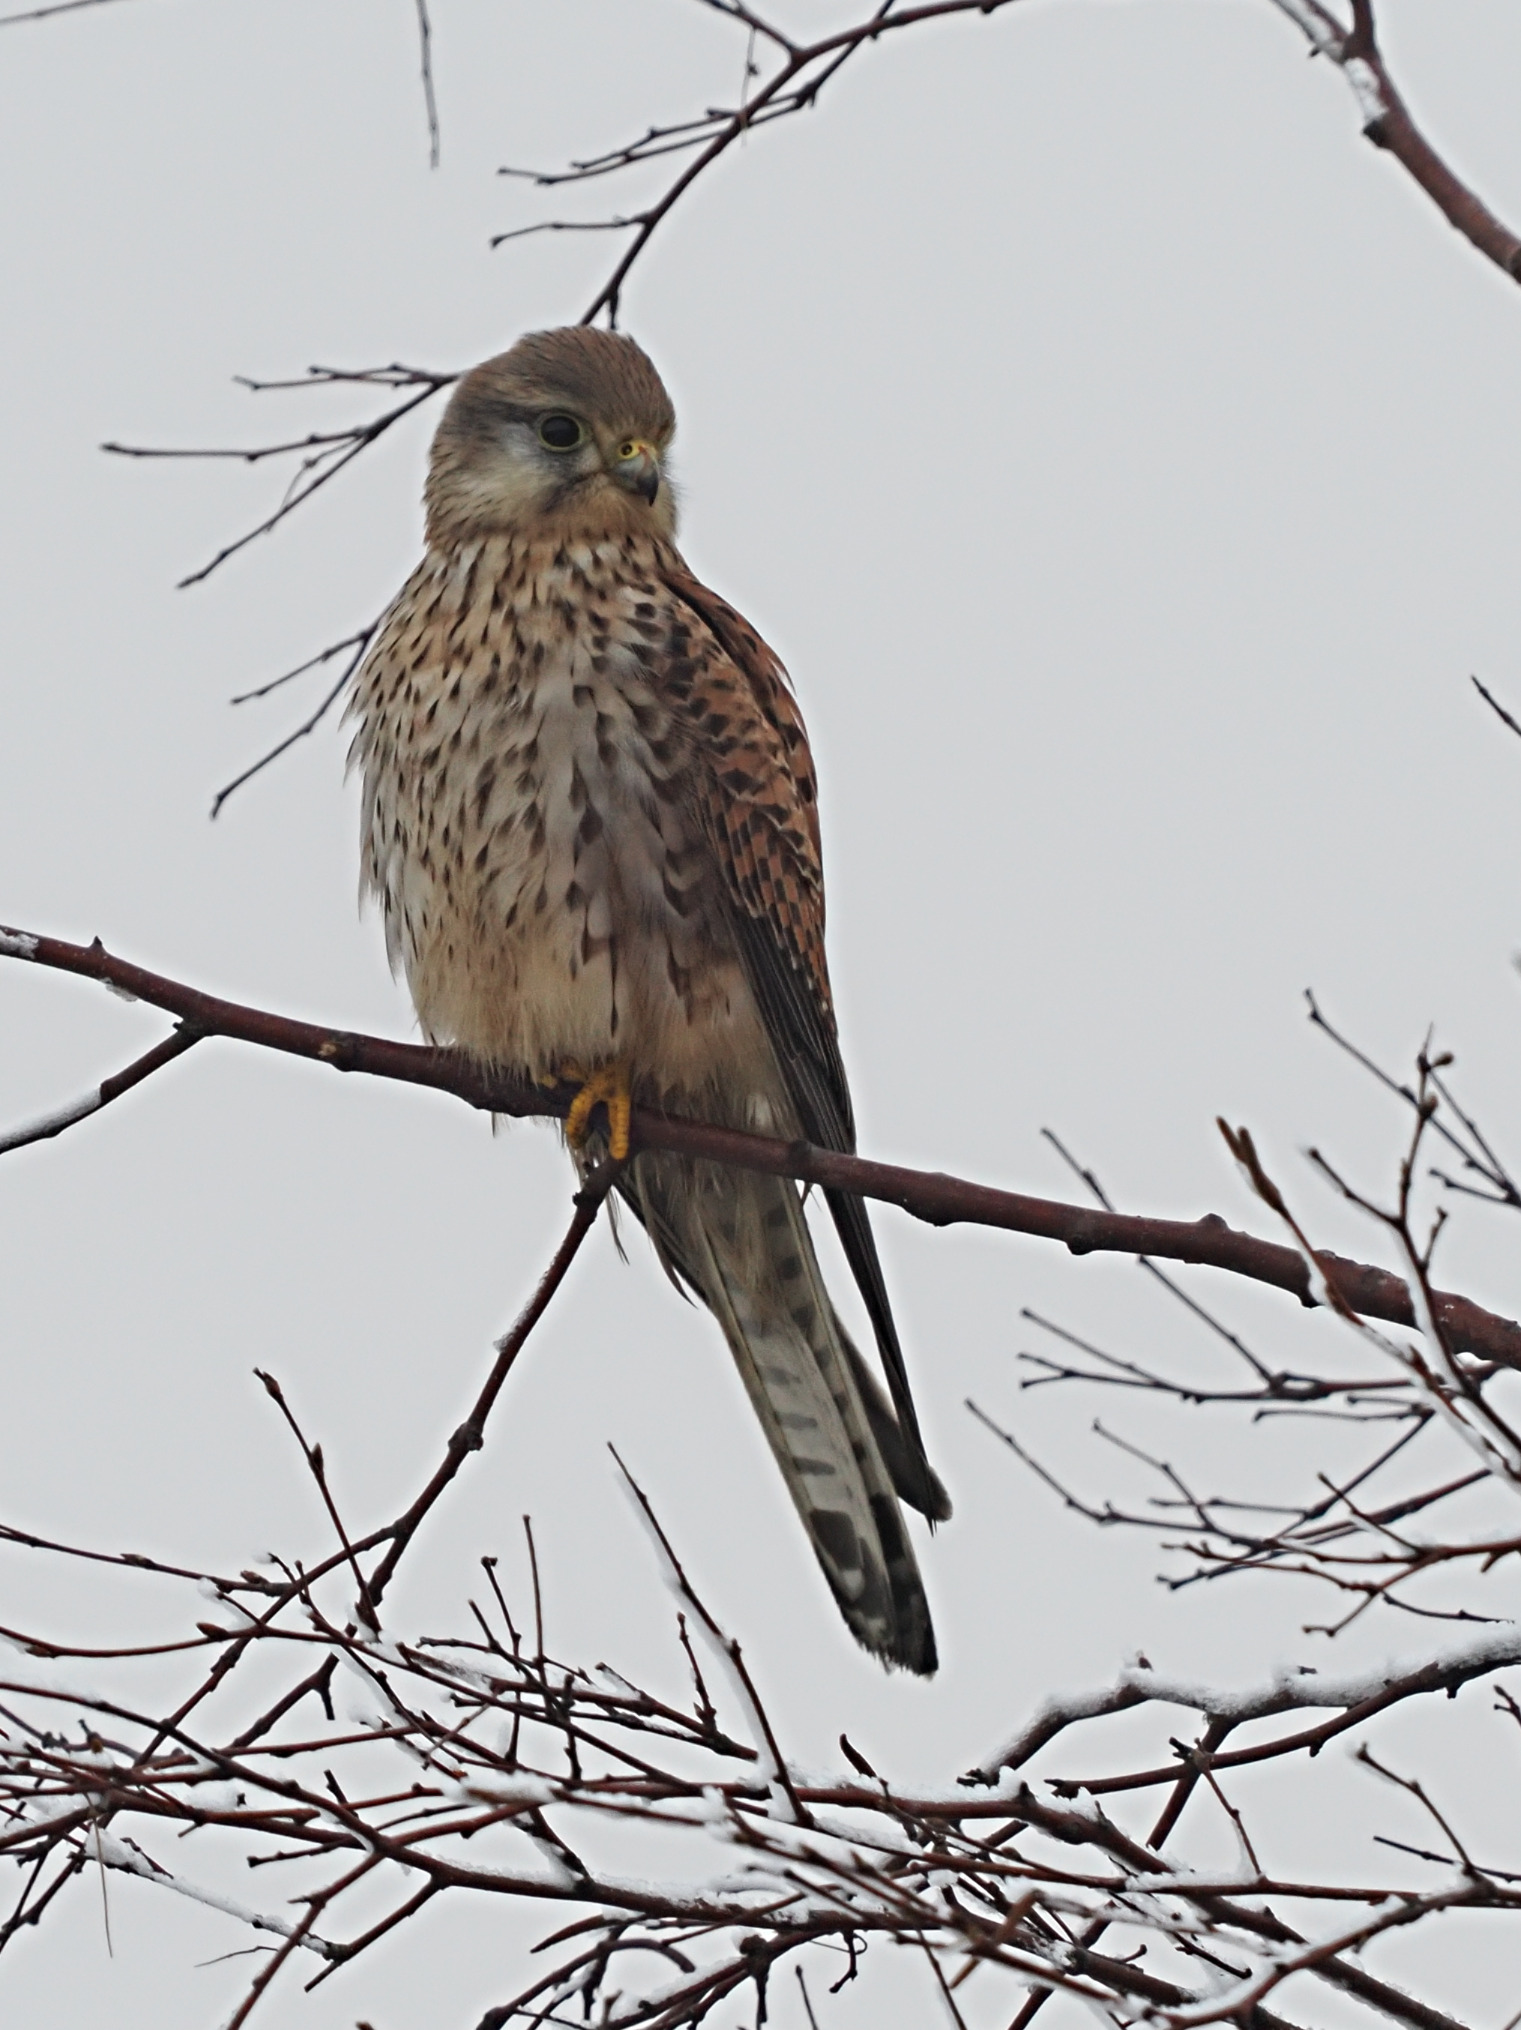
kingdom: Animalia
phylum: Chordata
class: Aves
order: Falconiformes
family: Falconidae
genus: Falco
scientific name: Falco tinnunculus
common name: Tårnfalk
